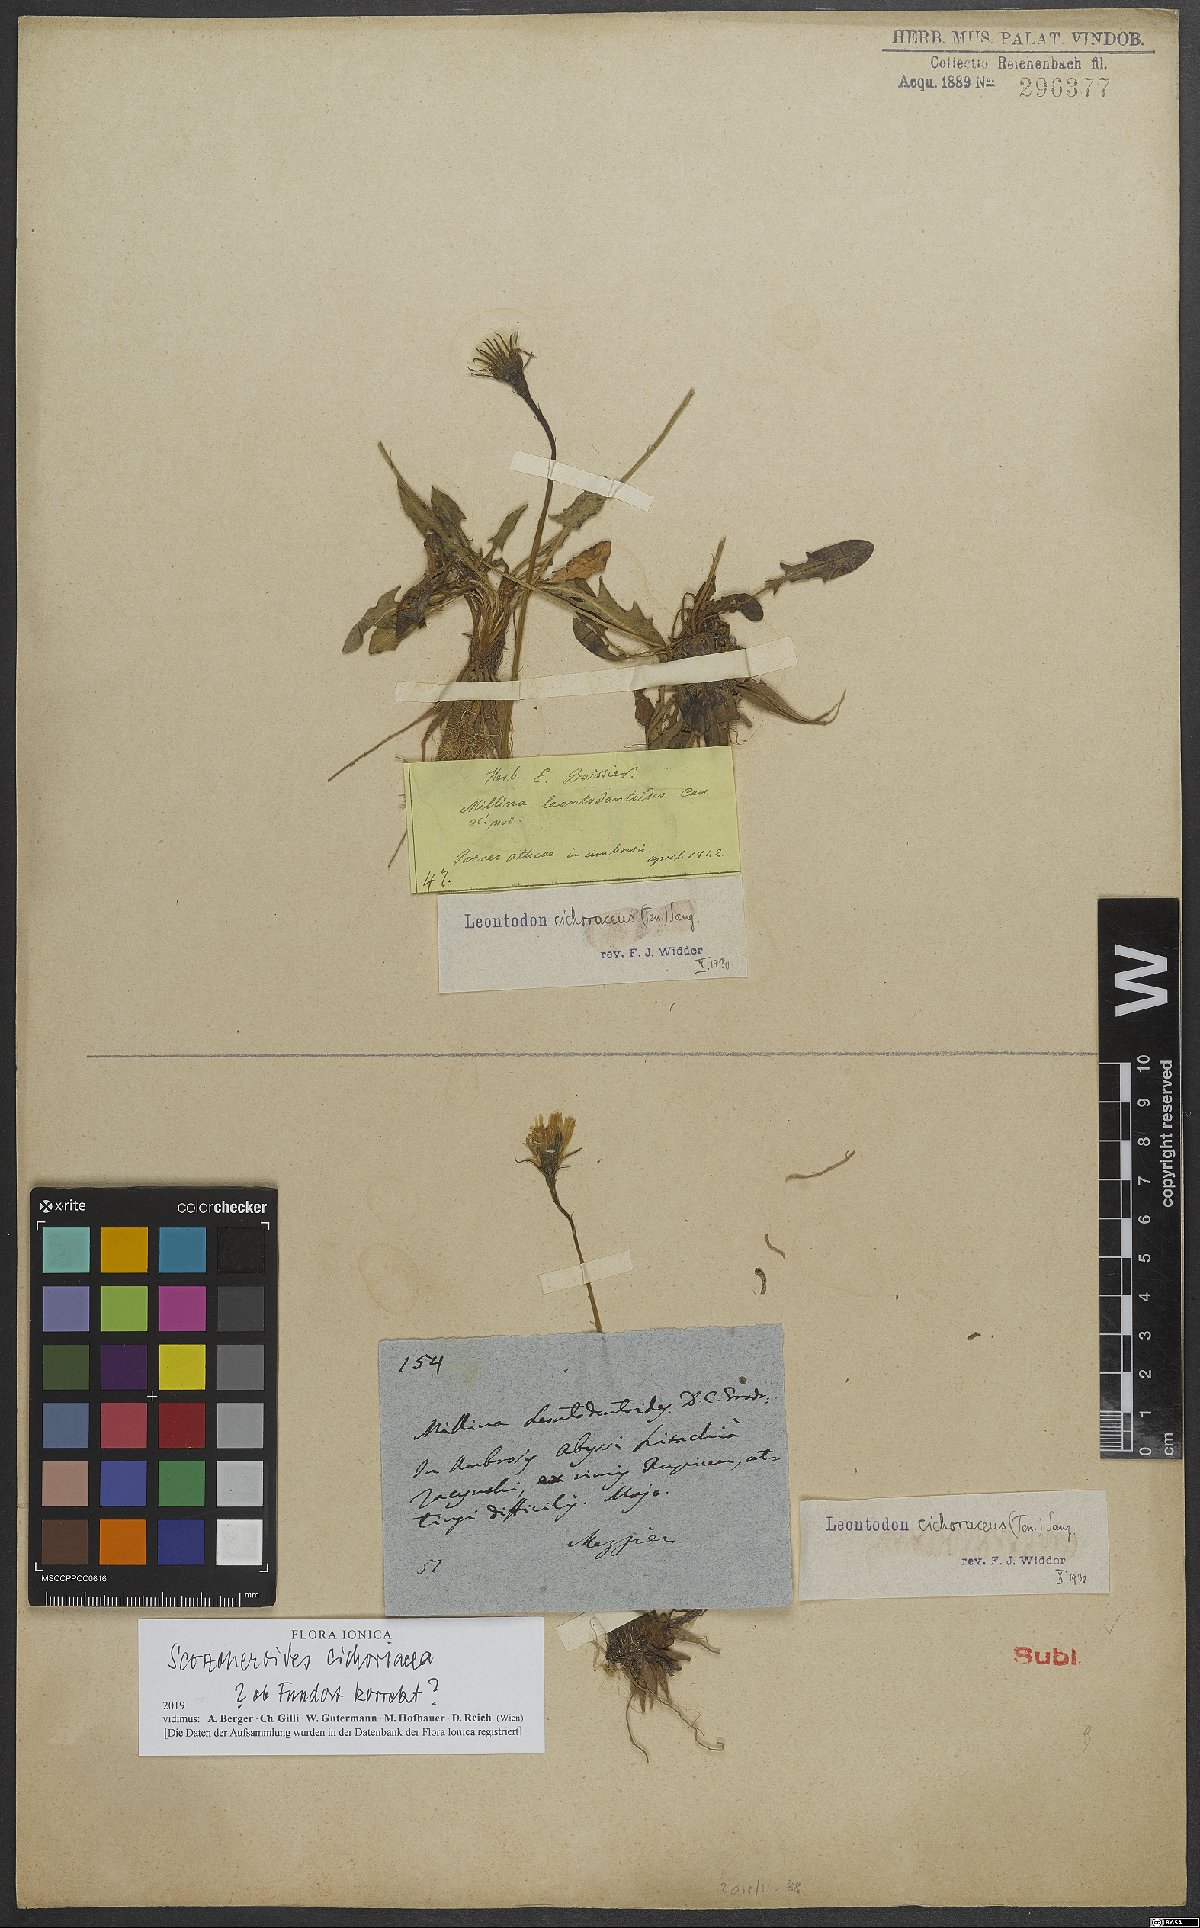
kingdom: Plantae
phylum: Tracheophyta
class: Magnoliopsida
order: Asterales
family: Asteraceae
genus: Scorzoneroides
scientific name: Scorzoneroides cichoriacea
